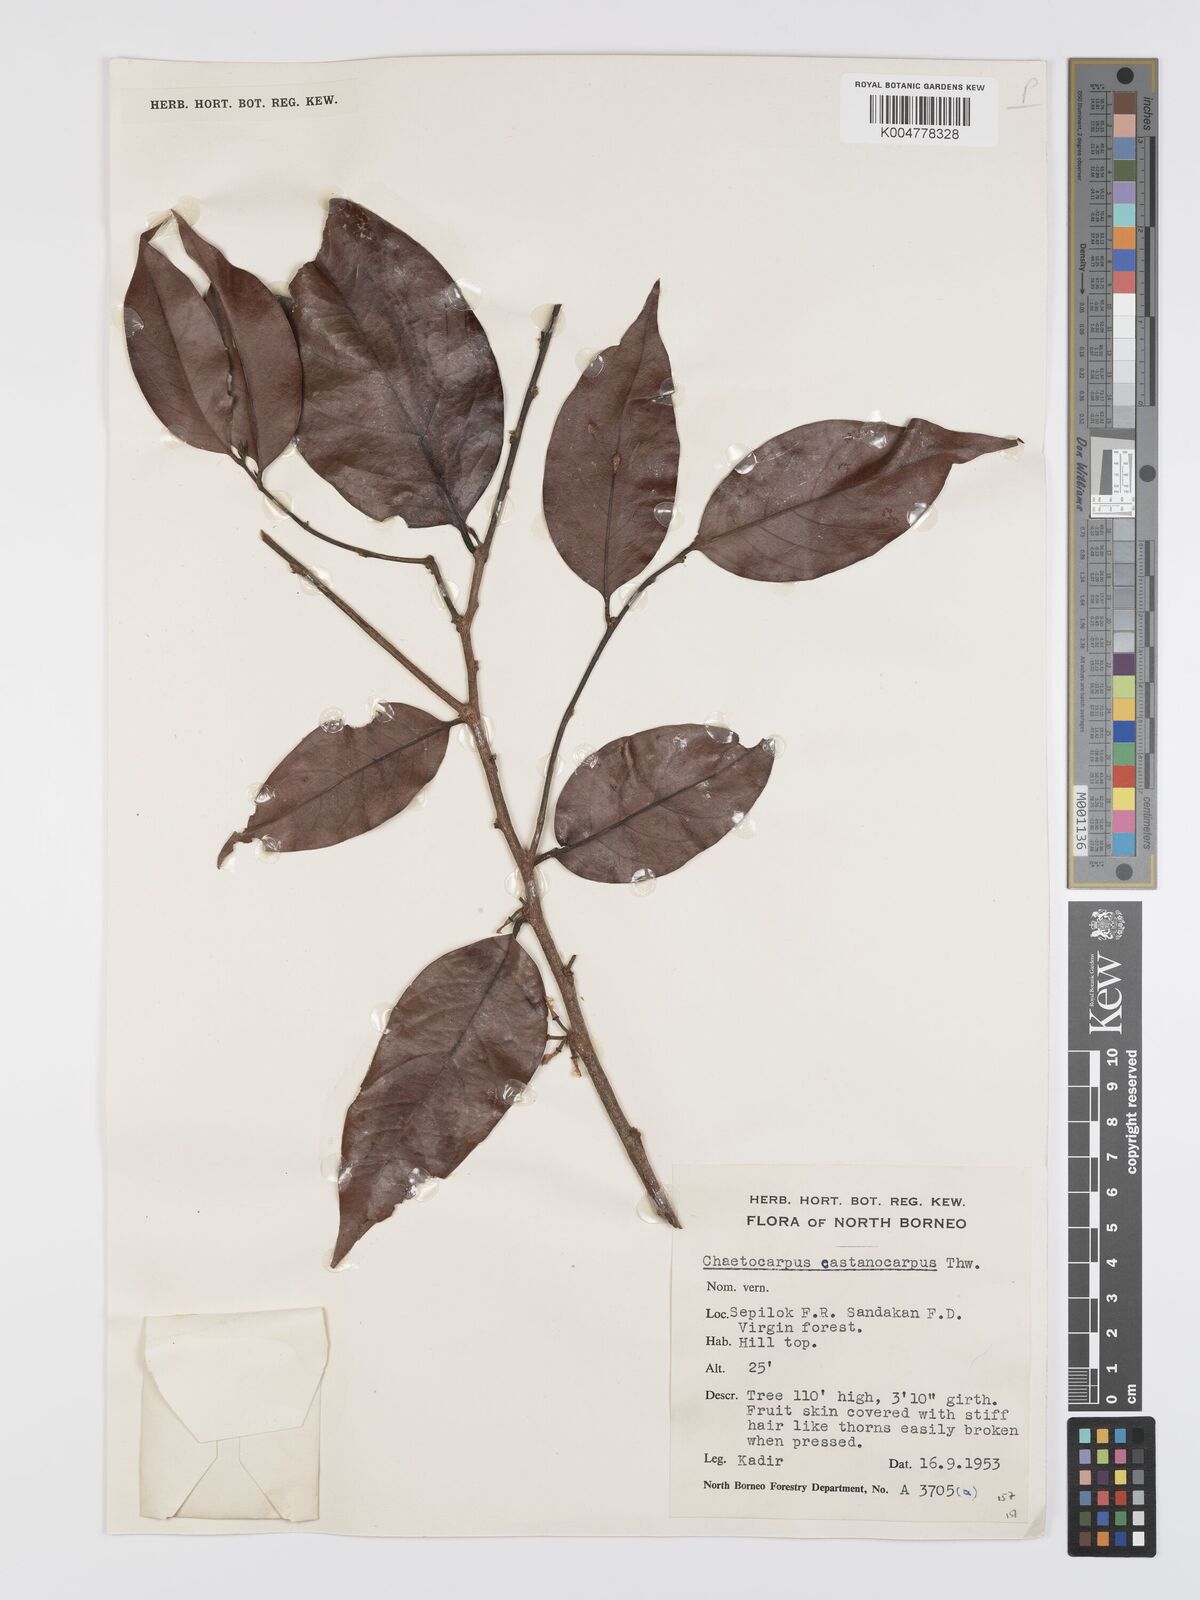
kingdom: Plantae
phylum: Tracheophyta
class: Magnoliopsida
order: Malpighiales
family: Peraceae
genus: Chaetocarpus
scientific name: Chaetocarpus castanocarpus
